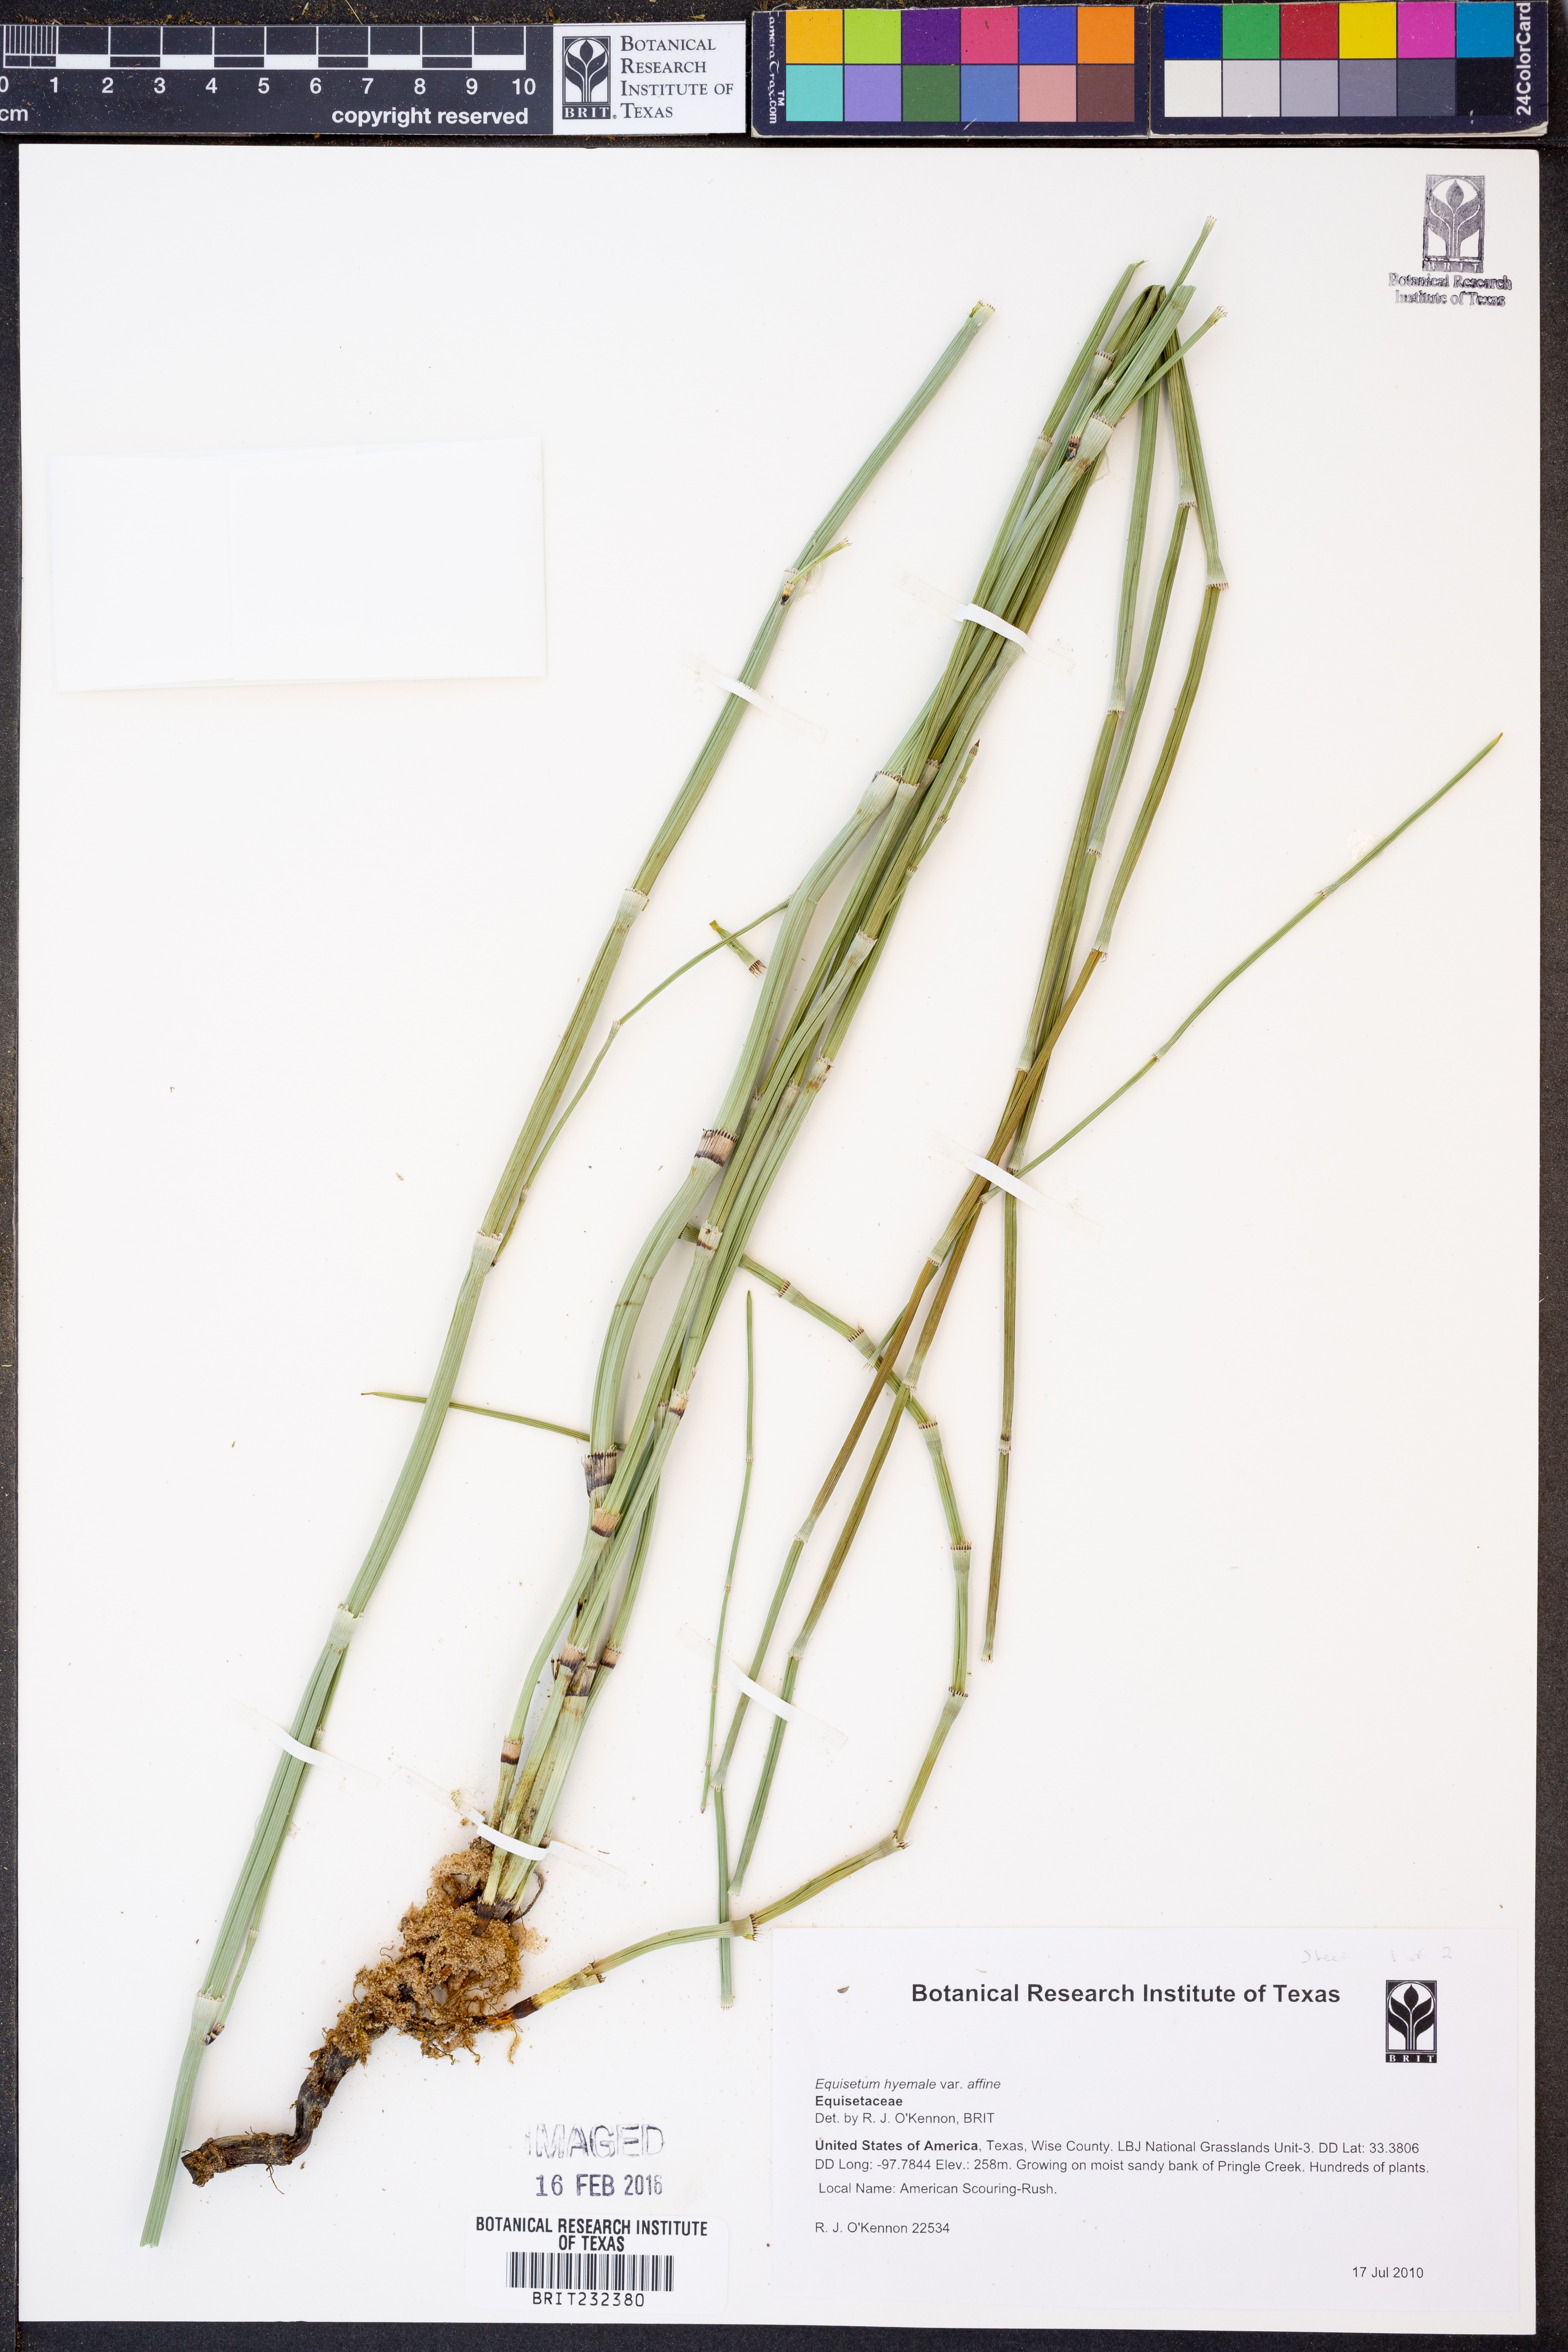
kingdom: Plantae
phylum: Tracheophyta
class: Polypodiopsida
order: Equisetales
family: Equisetaceae
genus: Equisetum
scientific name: Equisetum praealtum
